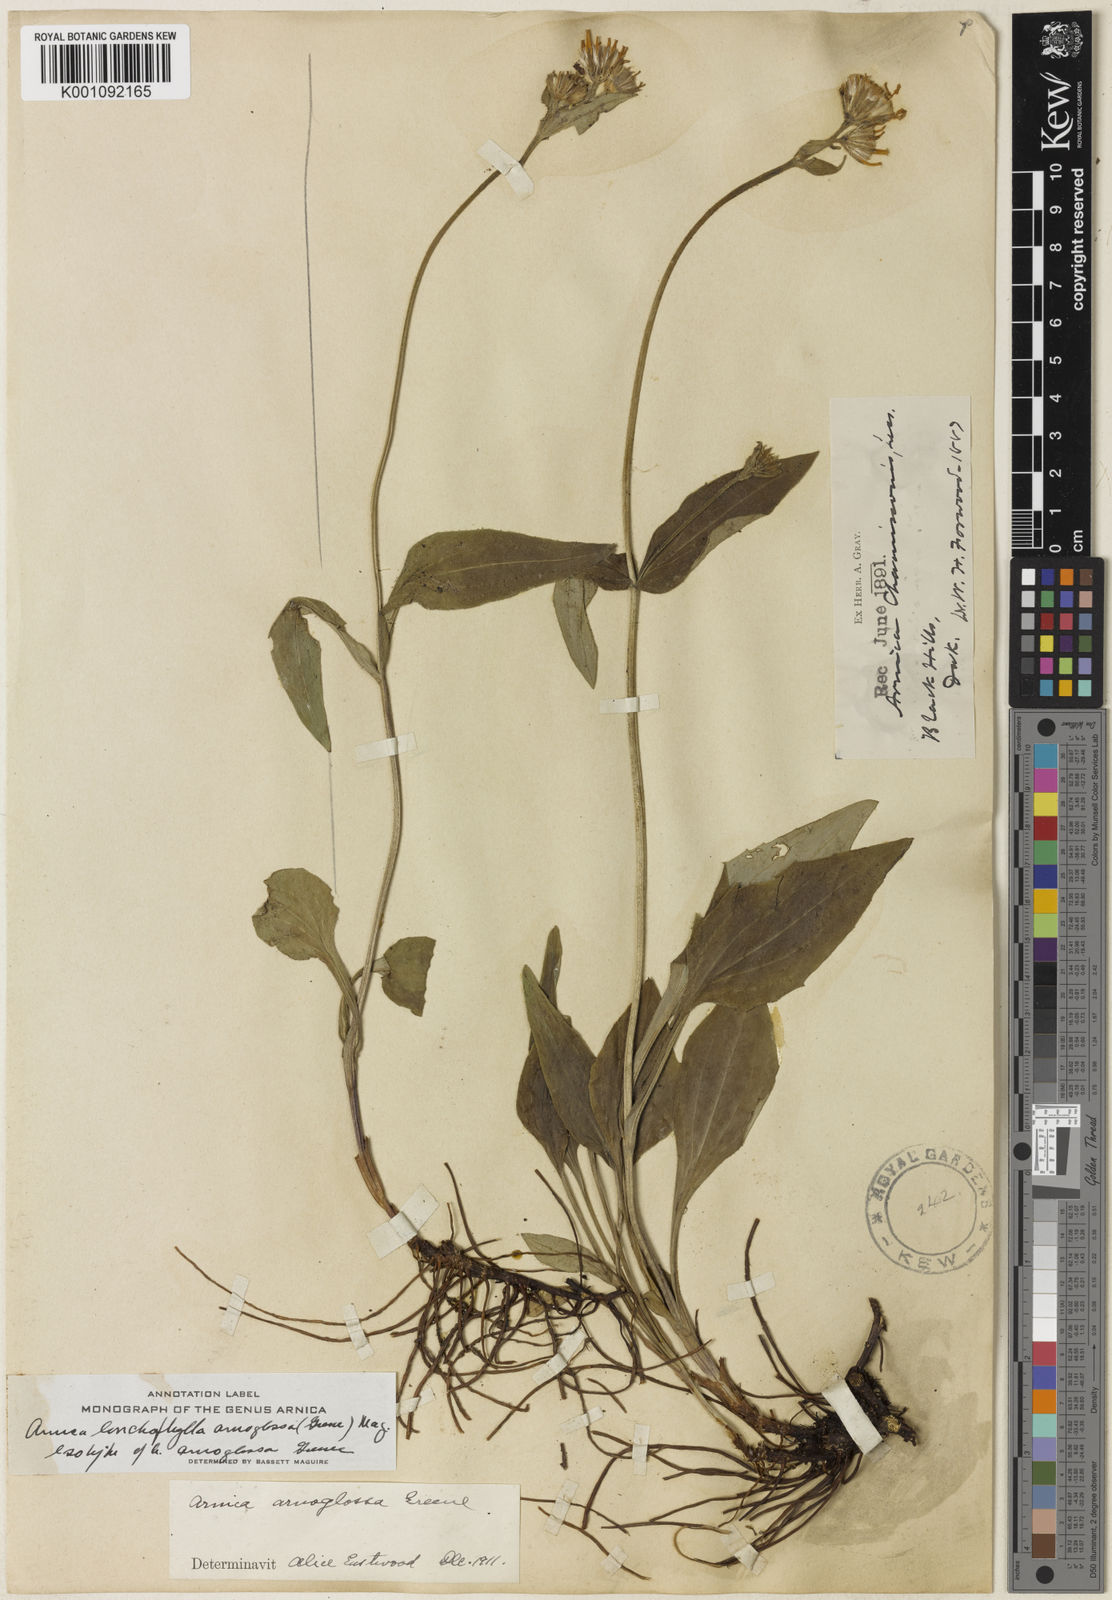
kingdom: Plantae
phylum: Tracheophyta
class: Magnoliopsida
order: Asterales
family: Asteraceae
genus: Arnica
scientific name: Arnica lonchophylla
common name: Northern arnica
